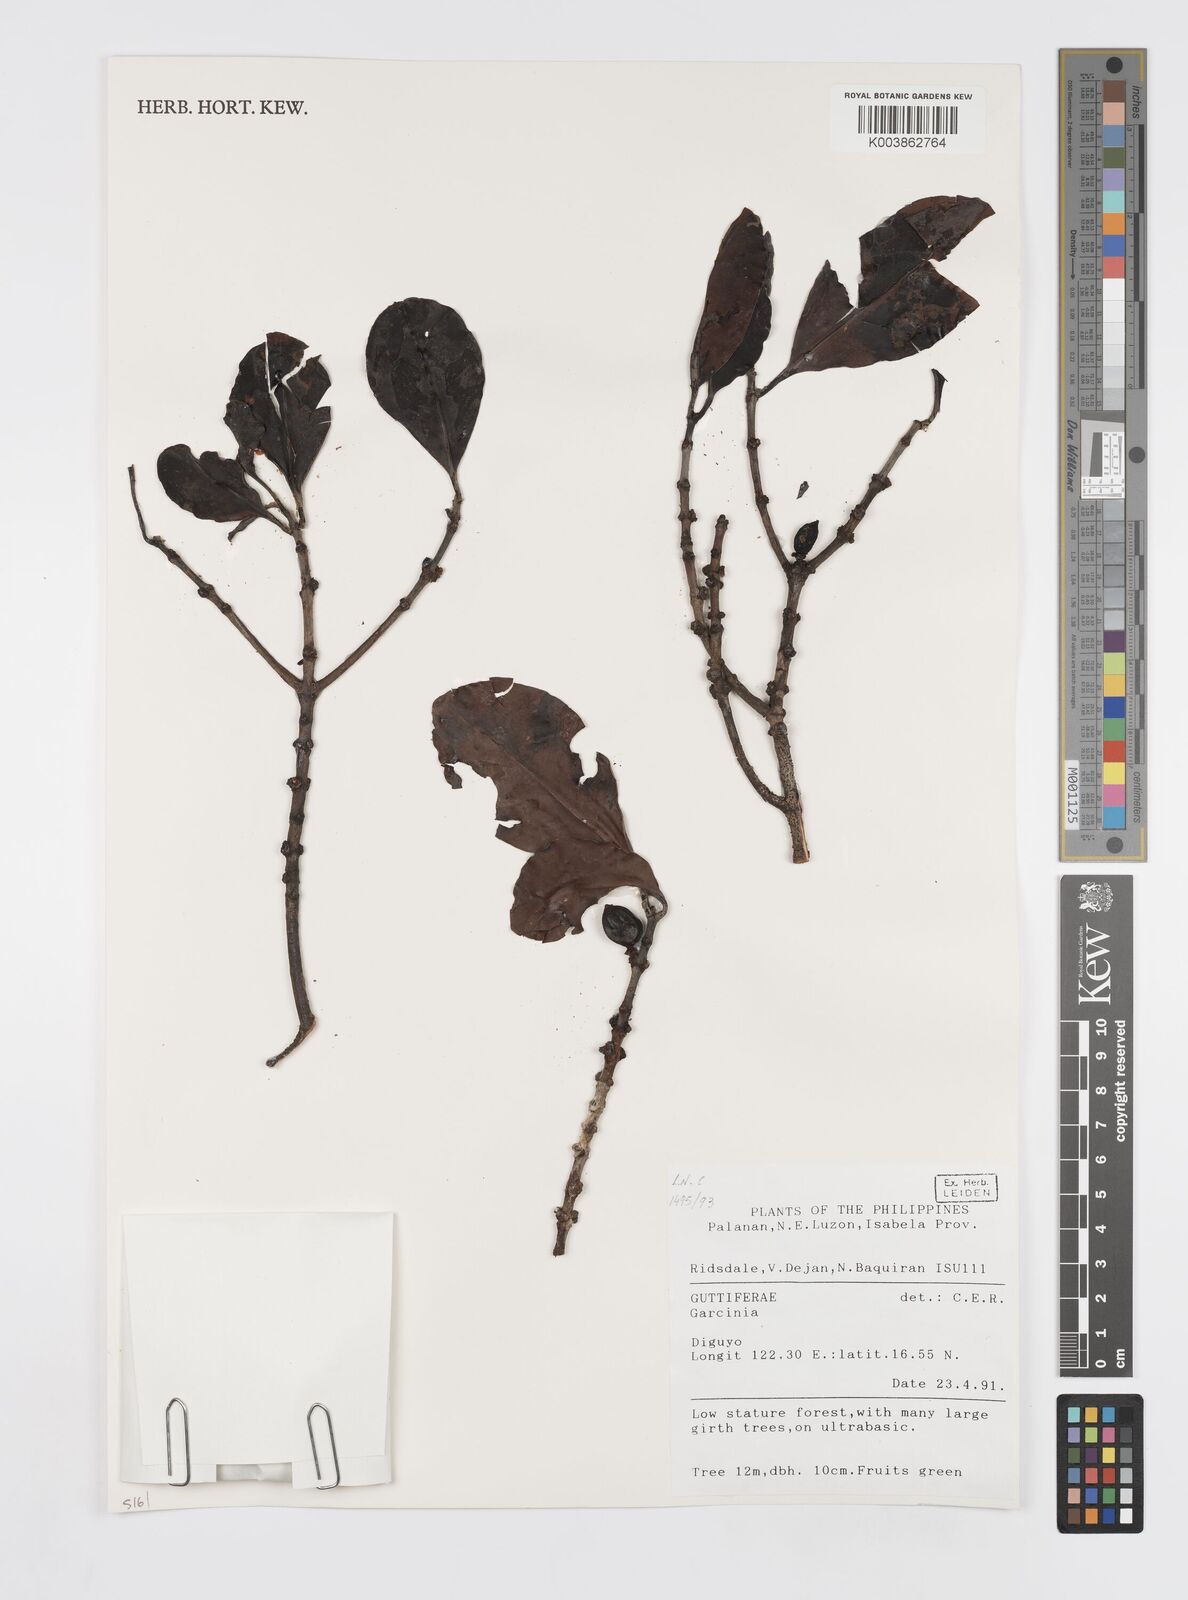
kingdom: Plantae
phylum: Tracheophyta
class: Magnoliopsida
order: Malpighiales
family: Clusiaceae
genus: Garcinia
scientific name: Garcinia
